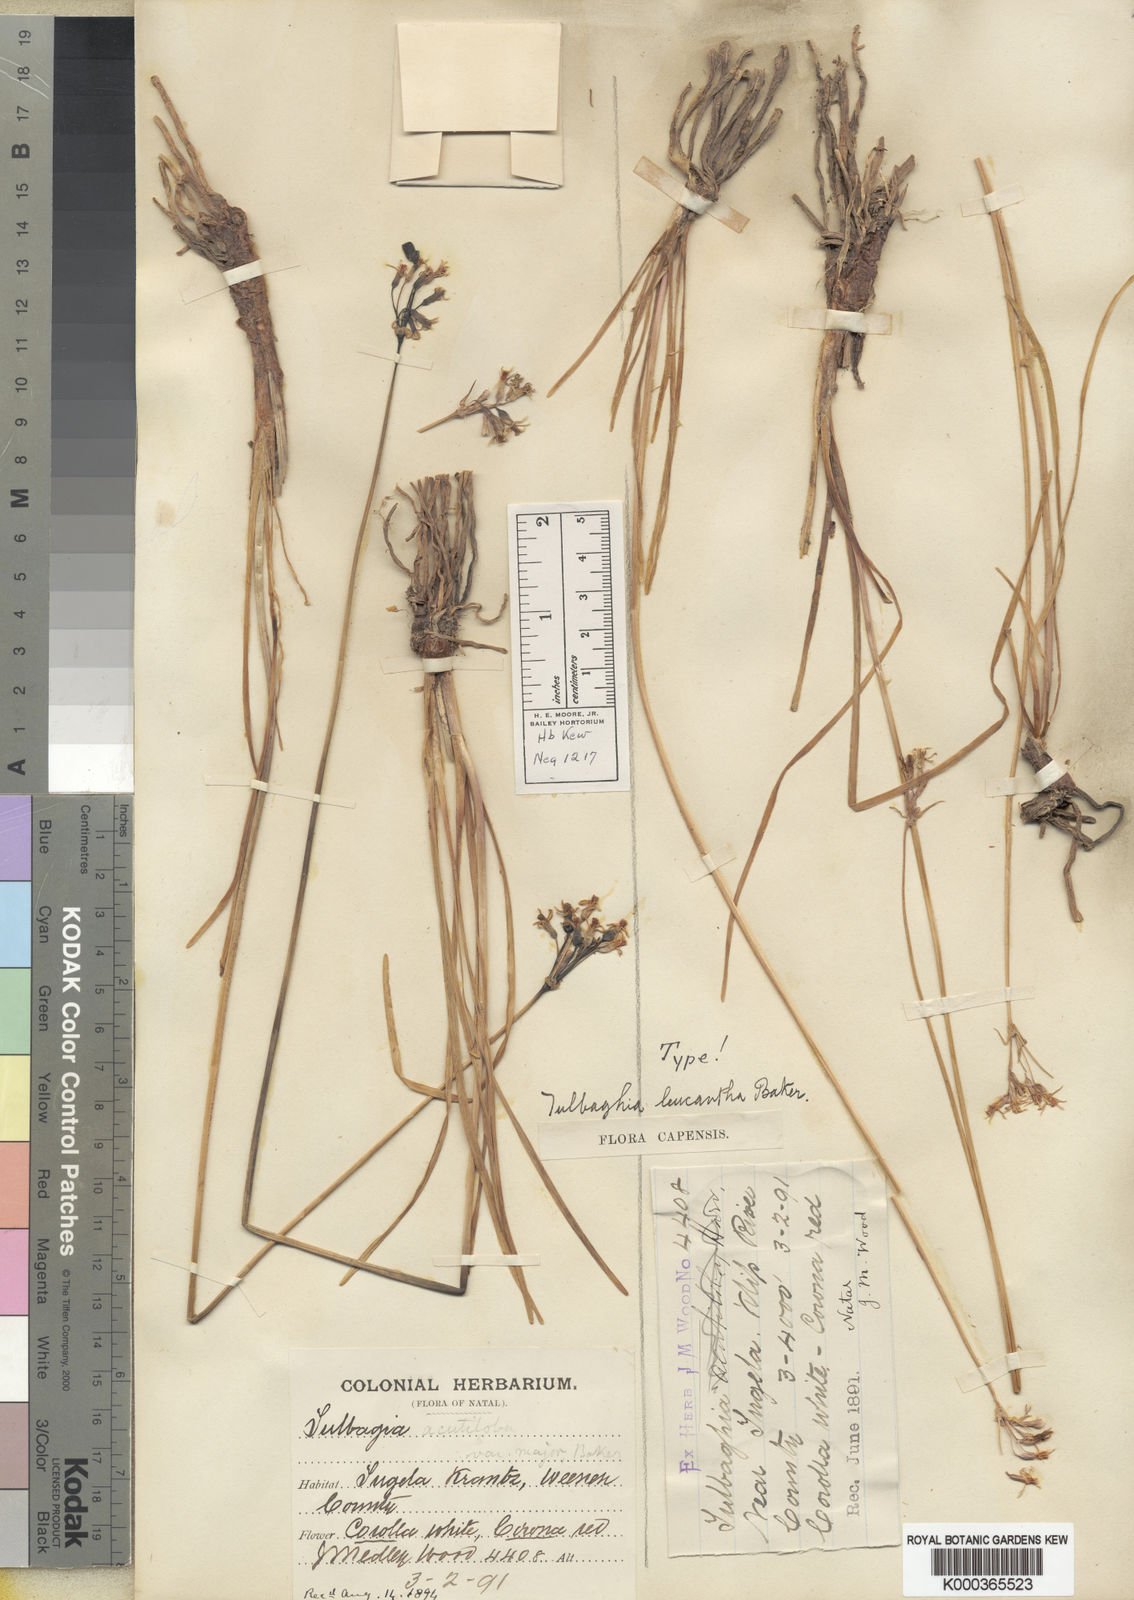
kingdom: Plantae
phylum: Tracheophyta
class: Liliopsida
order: Asparagales
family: Amaryllidaceae
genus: Tulbaghia
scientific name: Tulbaghia leucantha
